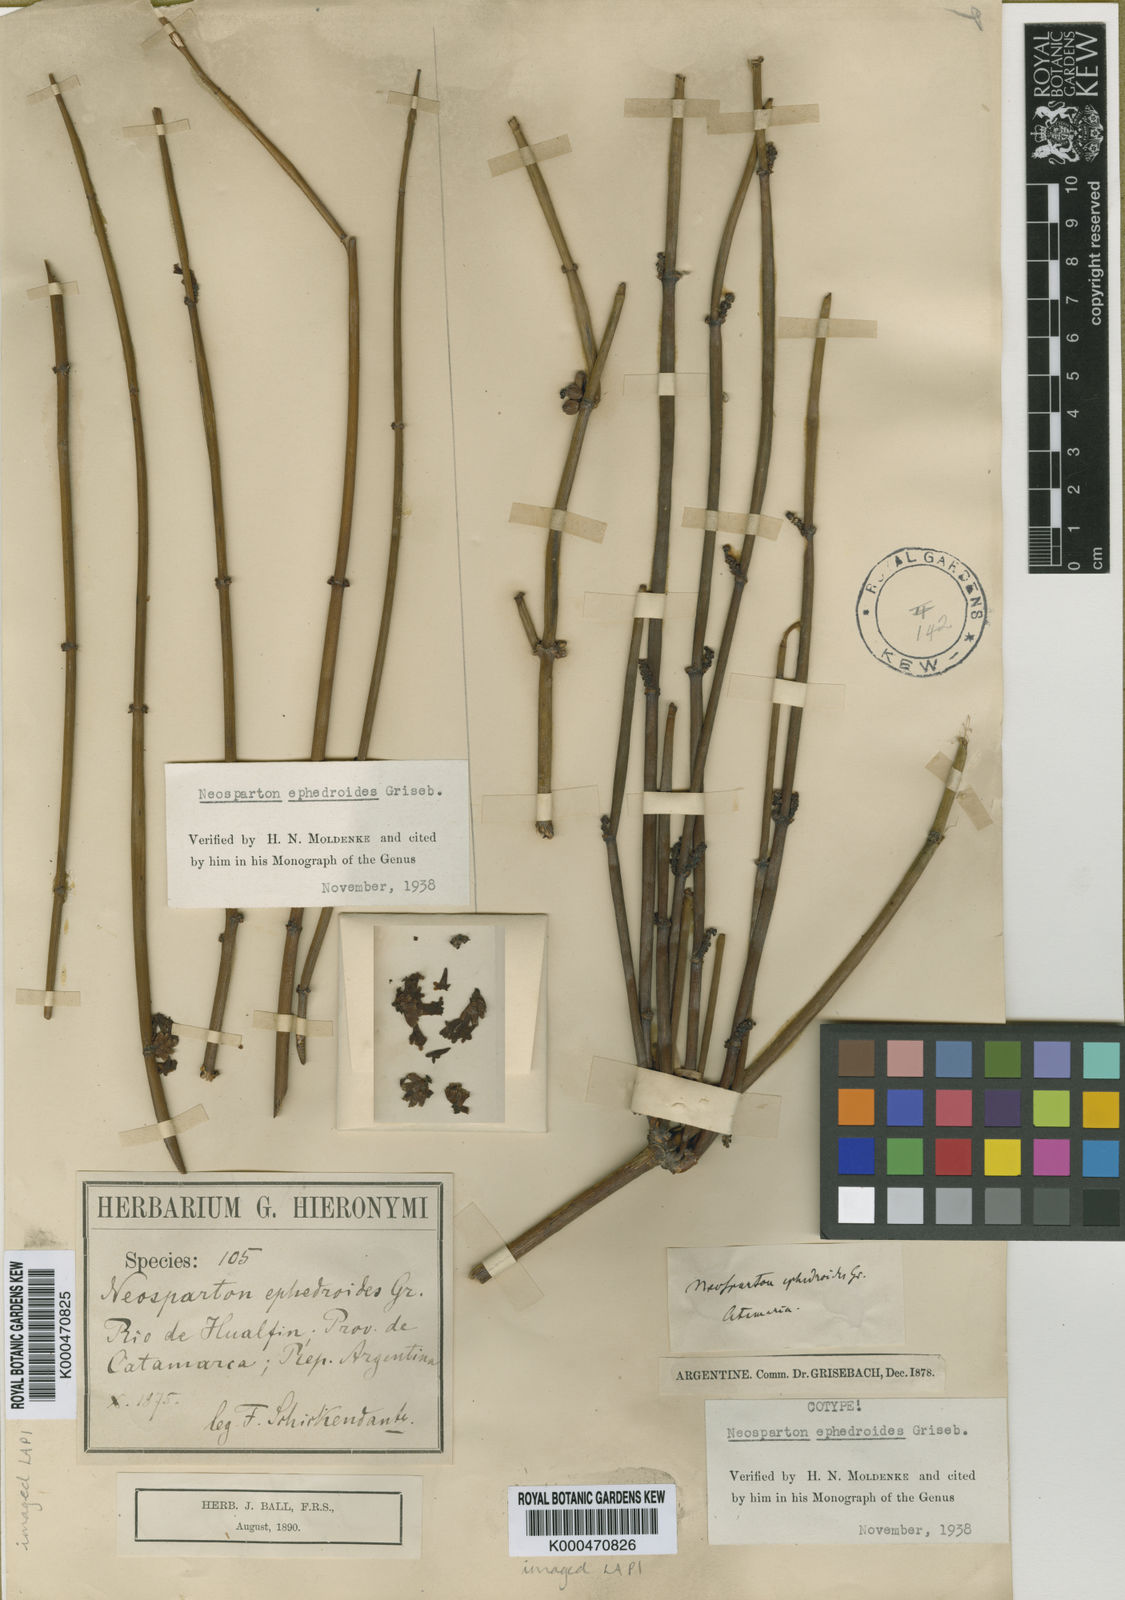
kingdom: Plantae
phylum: Tracheophyta
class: Magnoliopsida
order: Lamiales
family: Verbenaceae
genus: Neosparton
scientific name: Neosparton ephedroides
